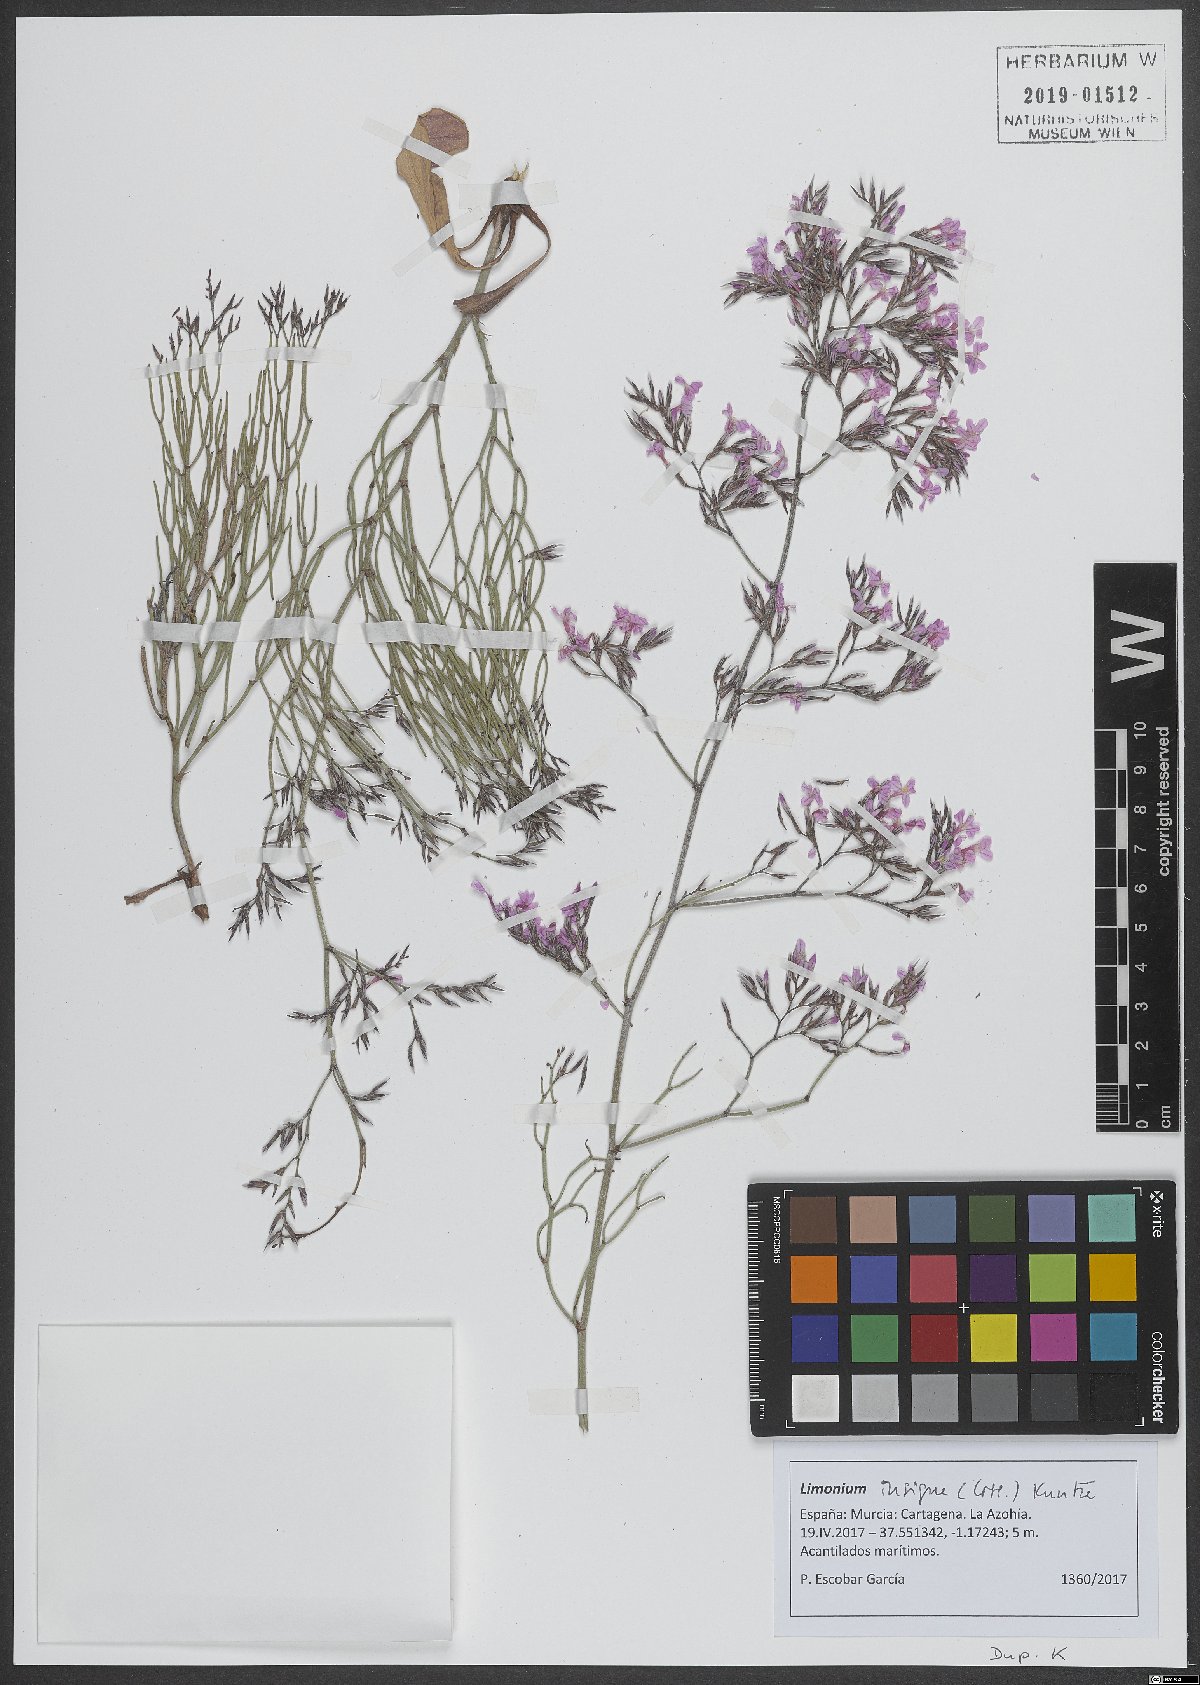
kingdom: Plantae
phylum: Tracheophyta
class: Magnoliopsida
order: Caryophyllales
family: Plumbaginaceae
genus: Limonium
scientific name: Limonium insigne
